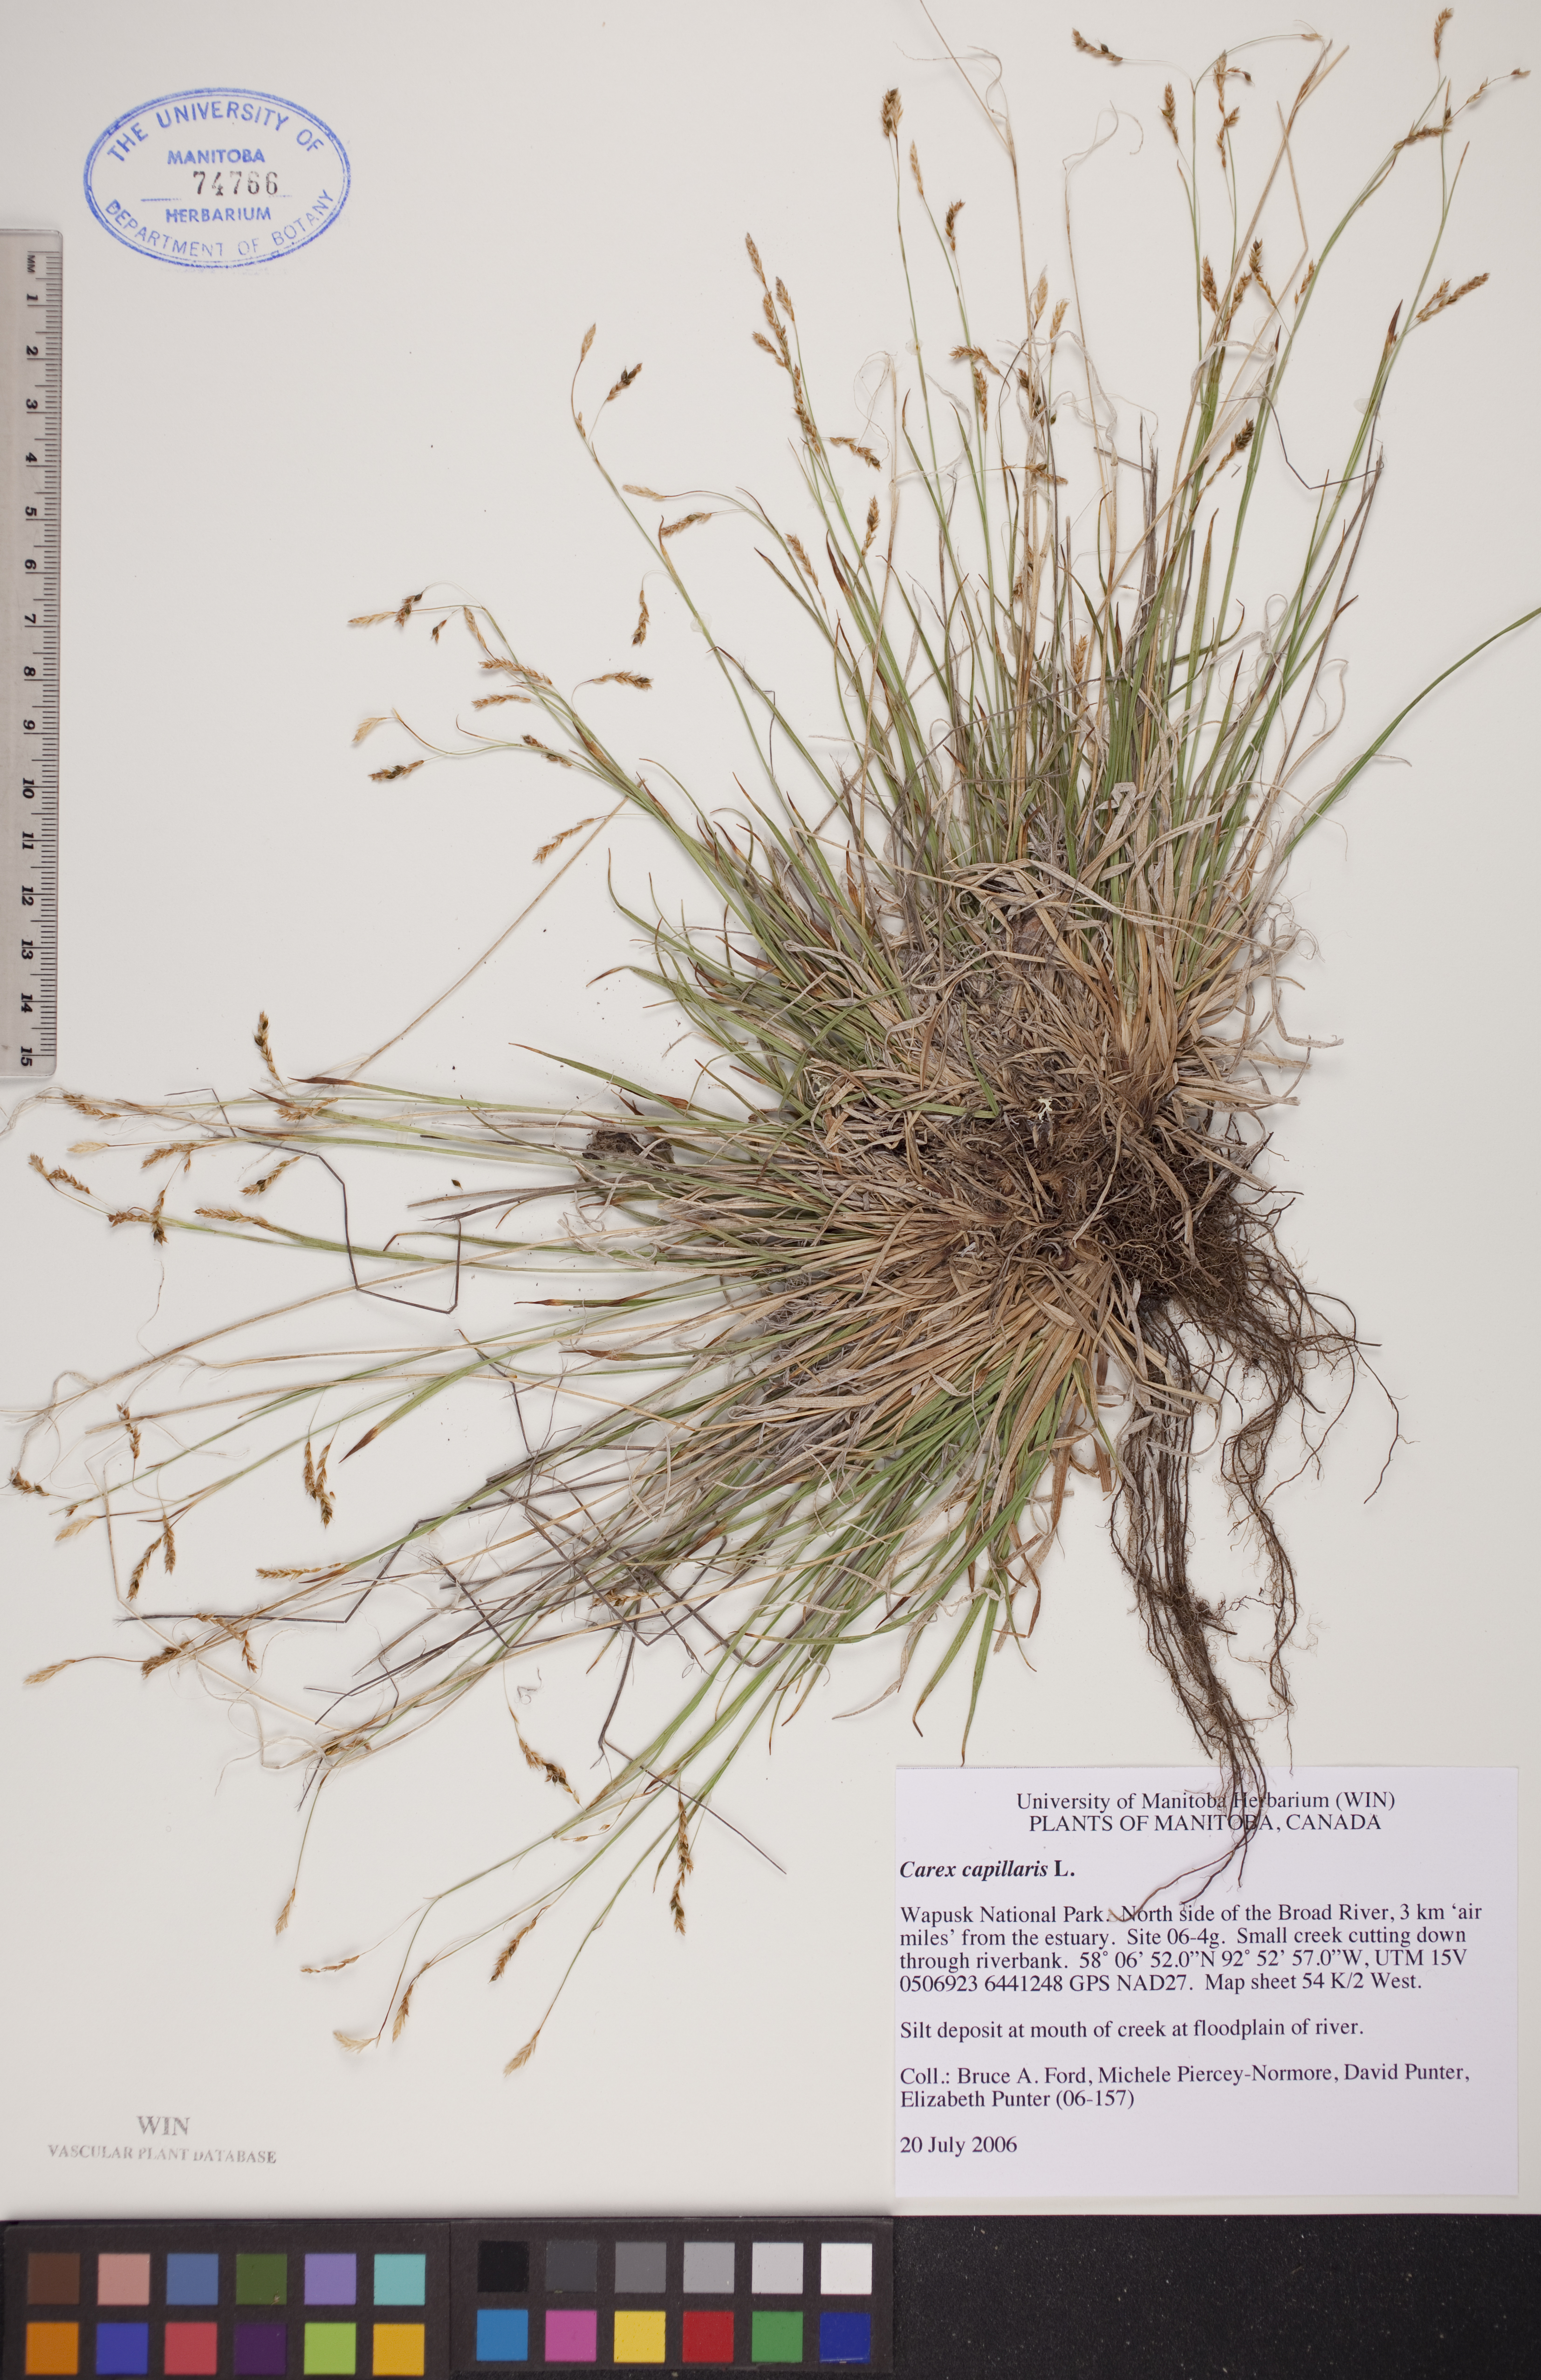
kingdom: Plantae
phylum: Tracheophyta
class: Liliopsida
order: Poales
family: Cyperaceae
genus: Carex
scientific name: Carex capillaris
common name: Hair sedge
